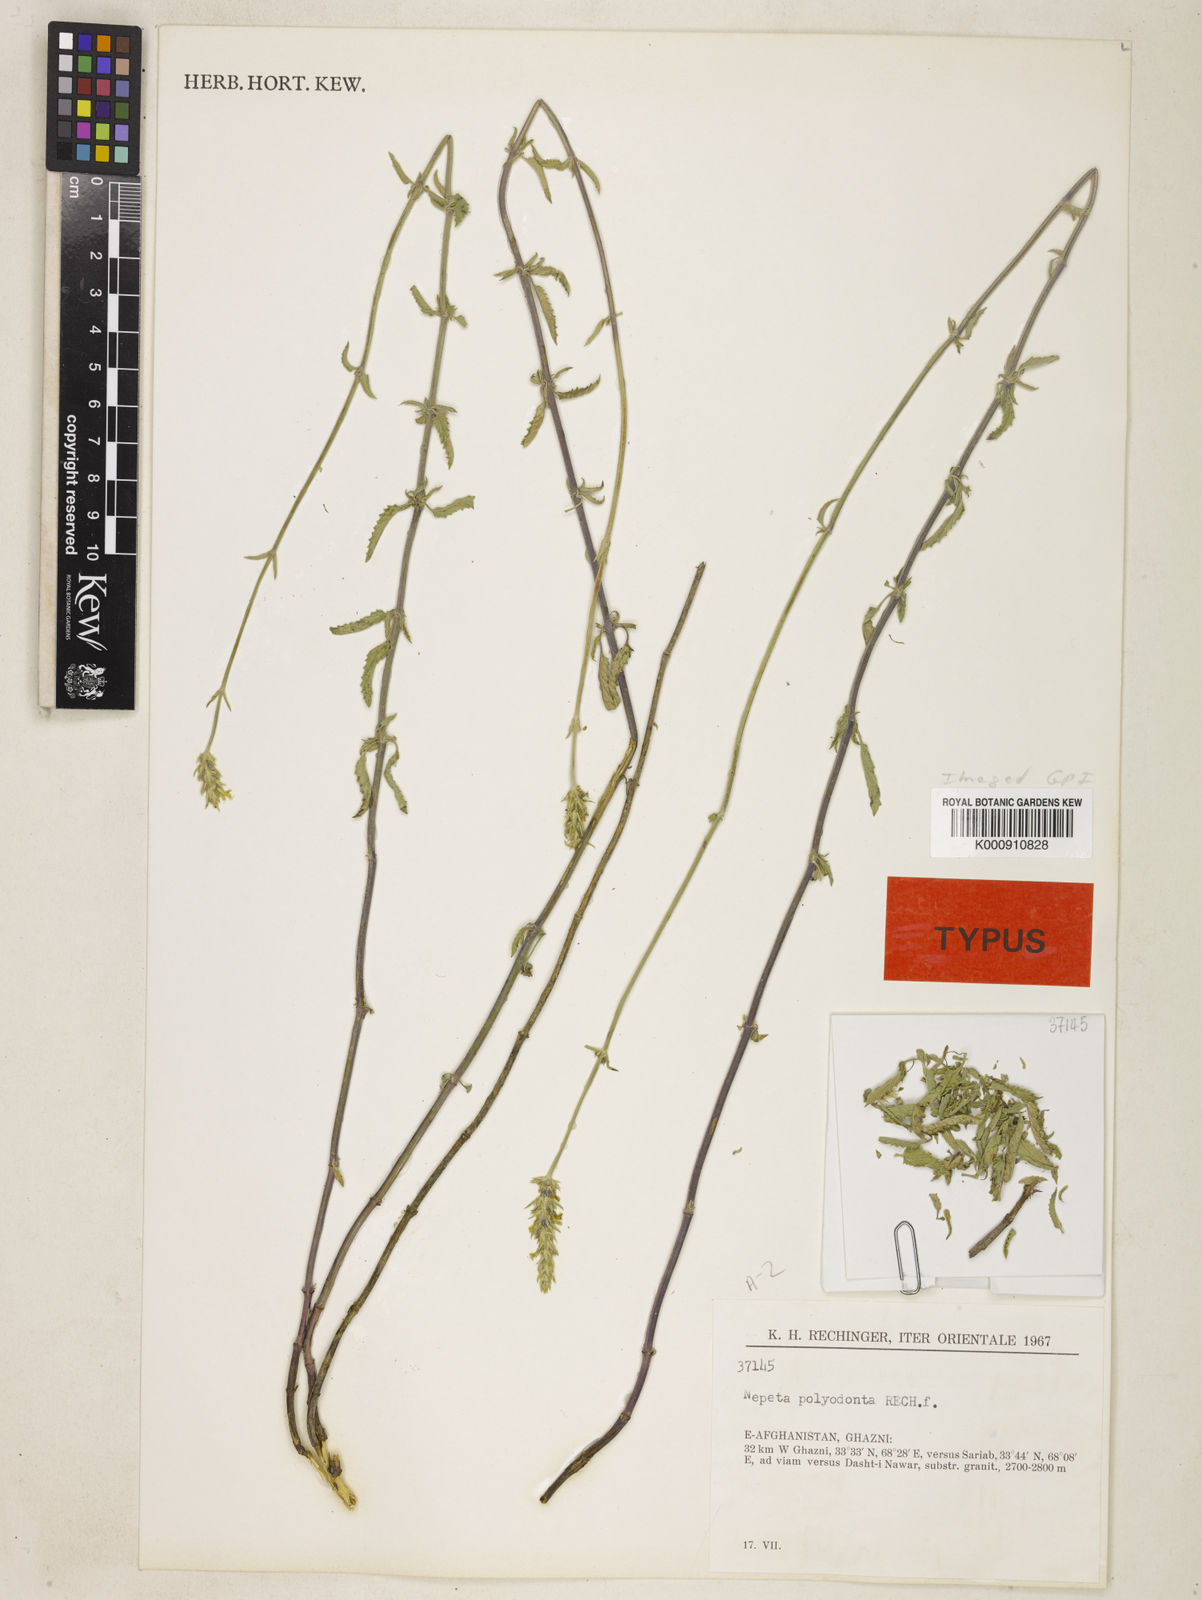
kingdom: Plantae
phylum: Tracheophyta
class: Magnoliopsida
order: Lamiales
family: Lamiaceae
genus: Nepeta
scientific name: Nepeta polyodonta
